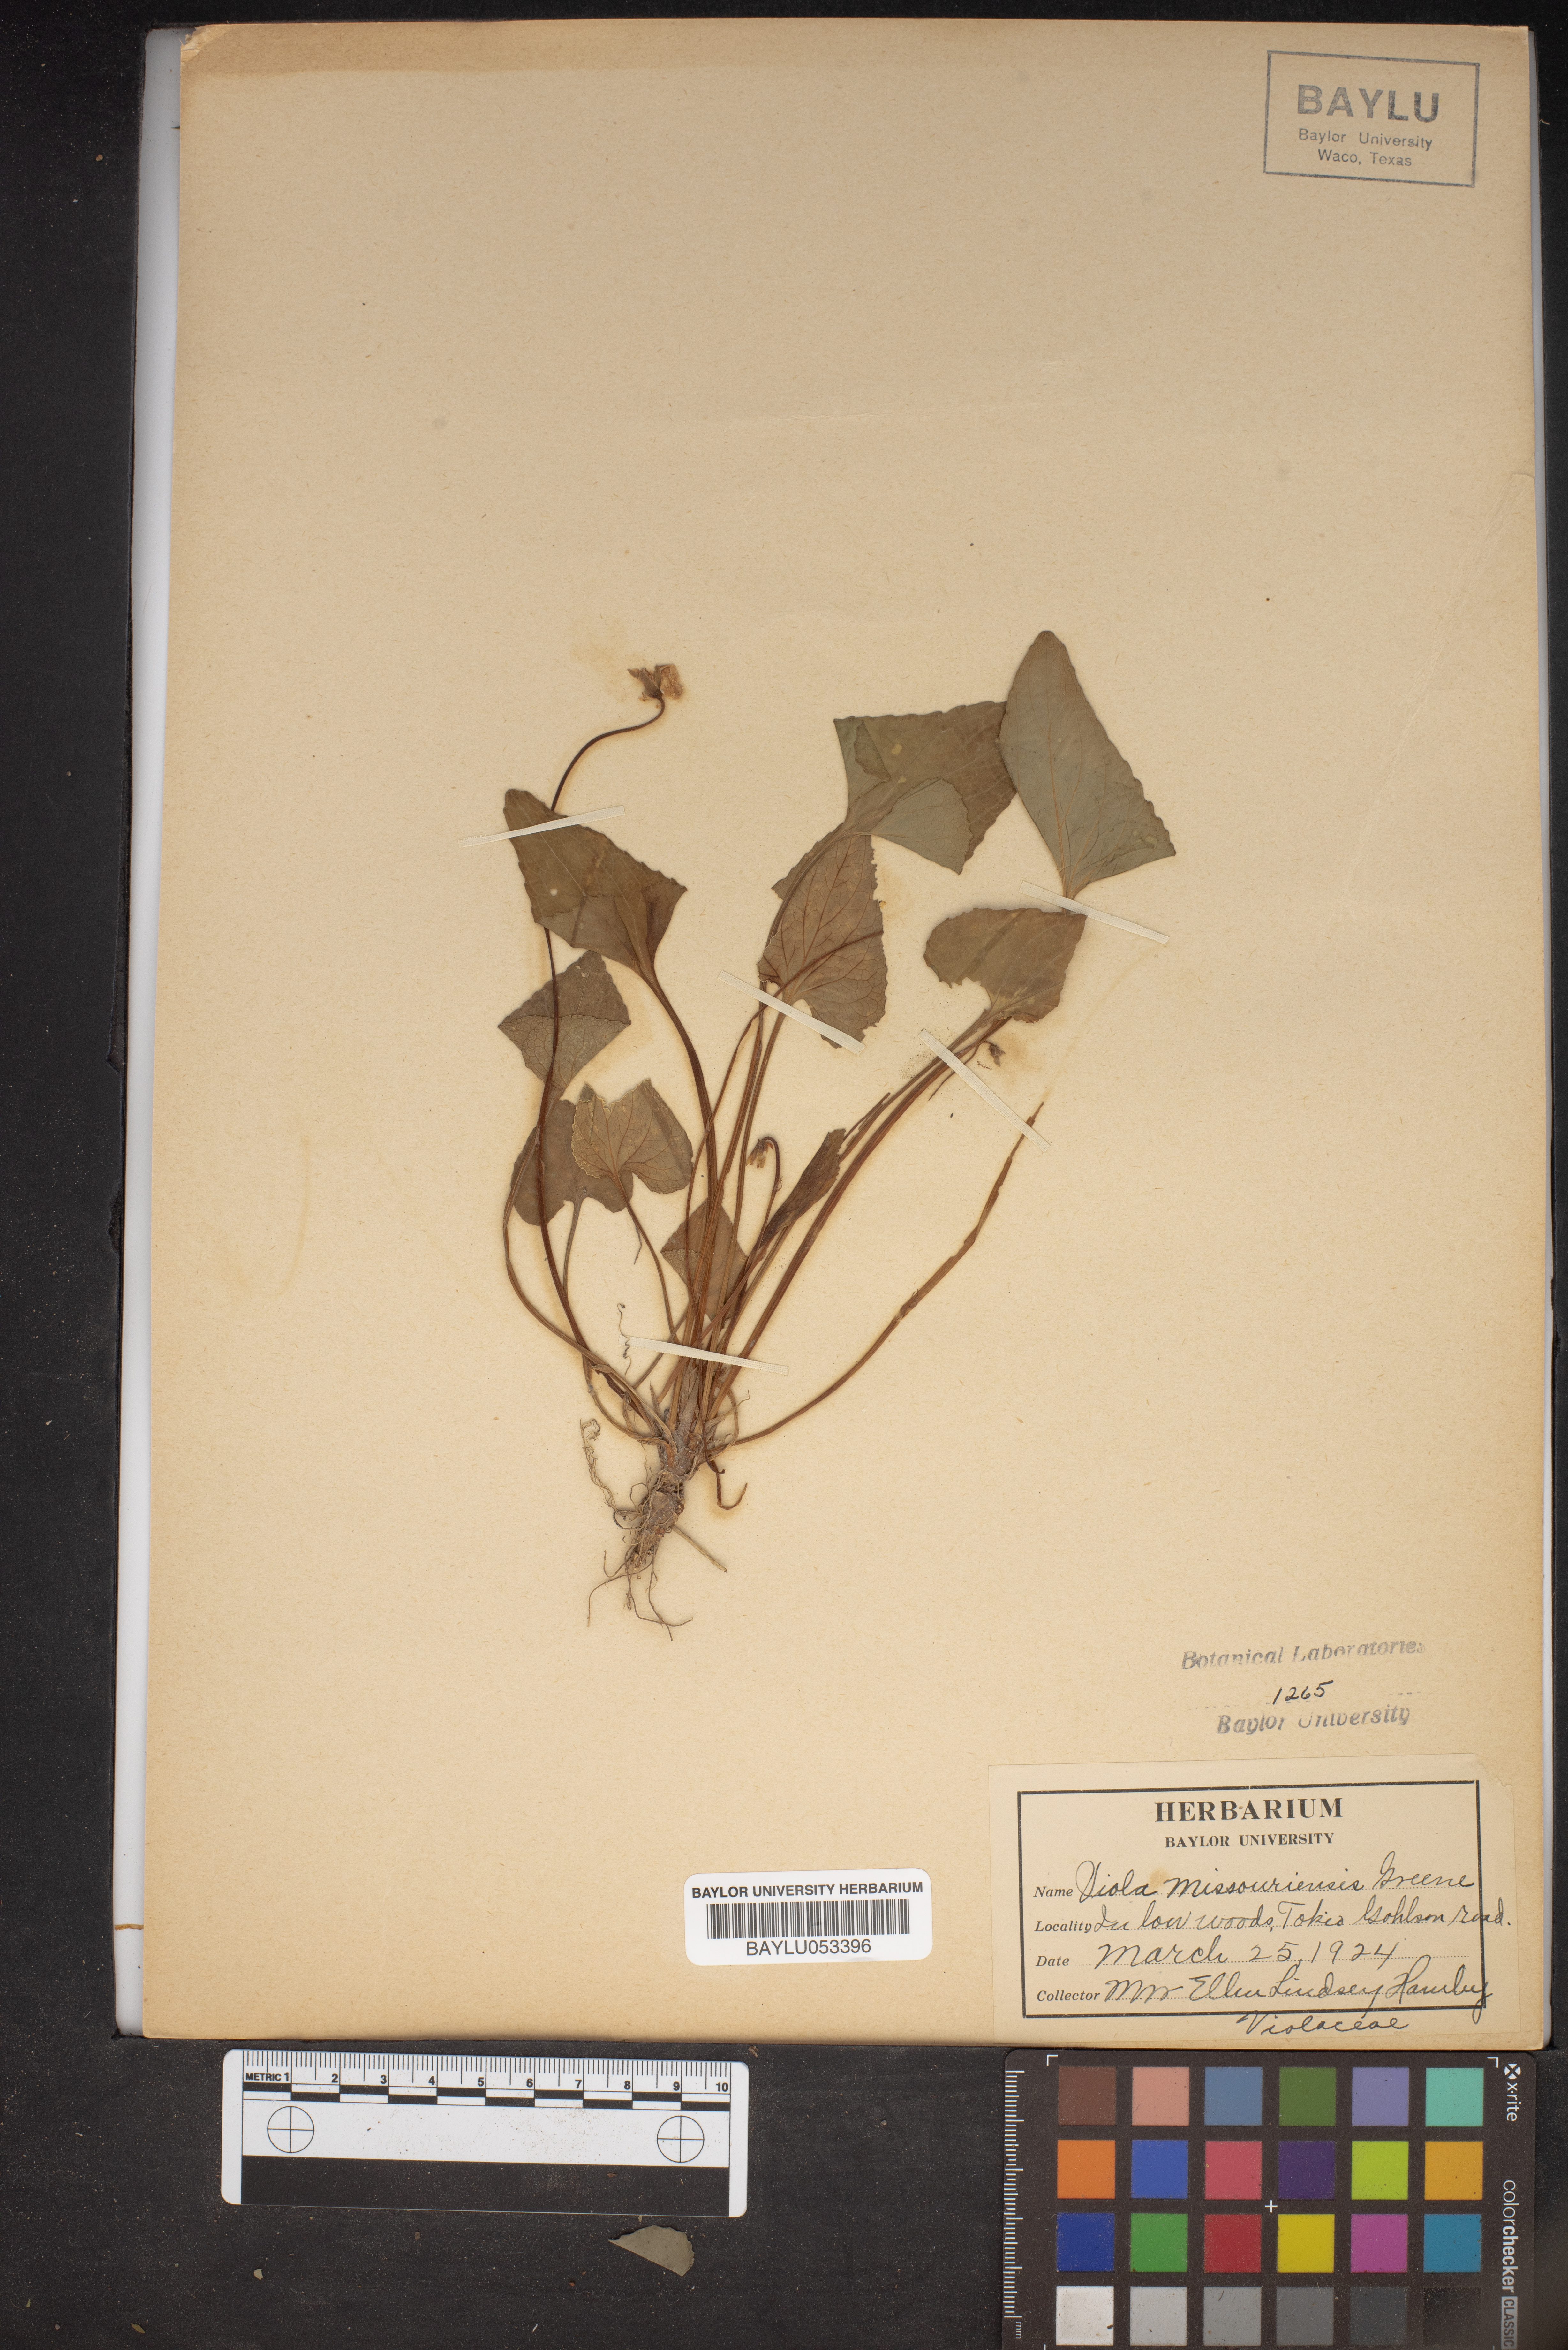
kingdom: Plantae
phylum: Tracheophyta
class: Magnoliopsida
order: Malpighiales
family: Violaceae
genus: Viola
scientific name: Viola missouriensis
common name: Missouri violet
